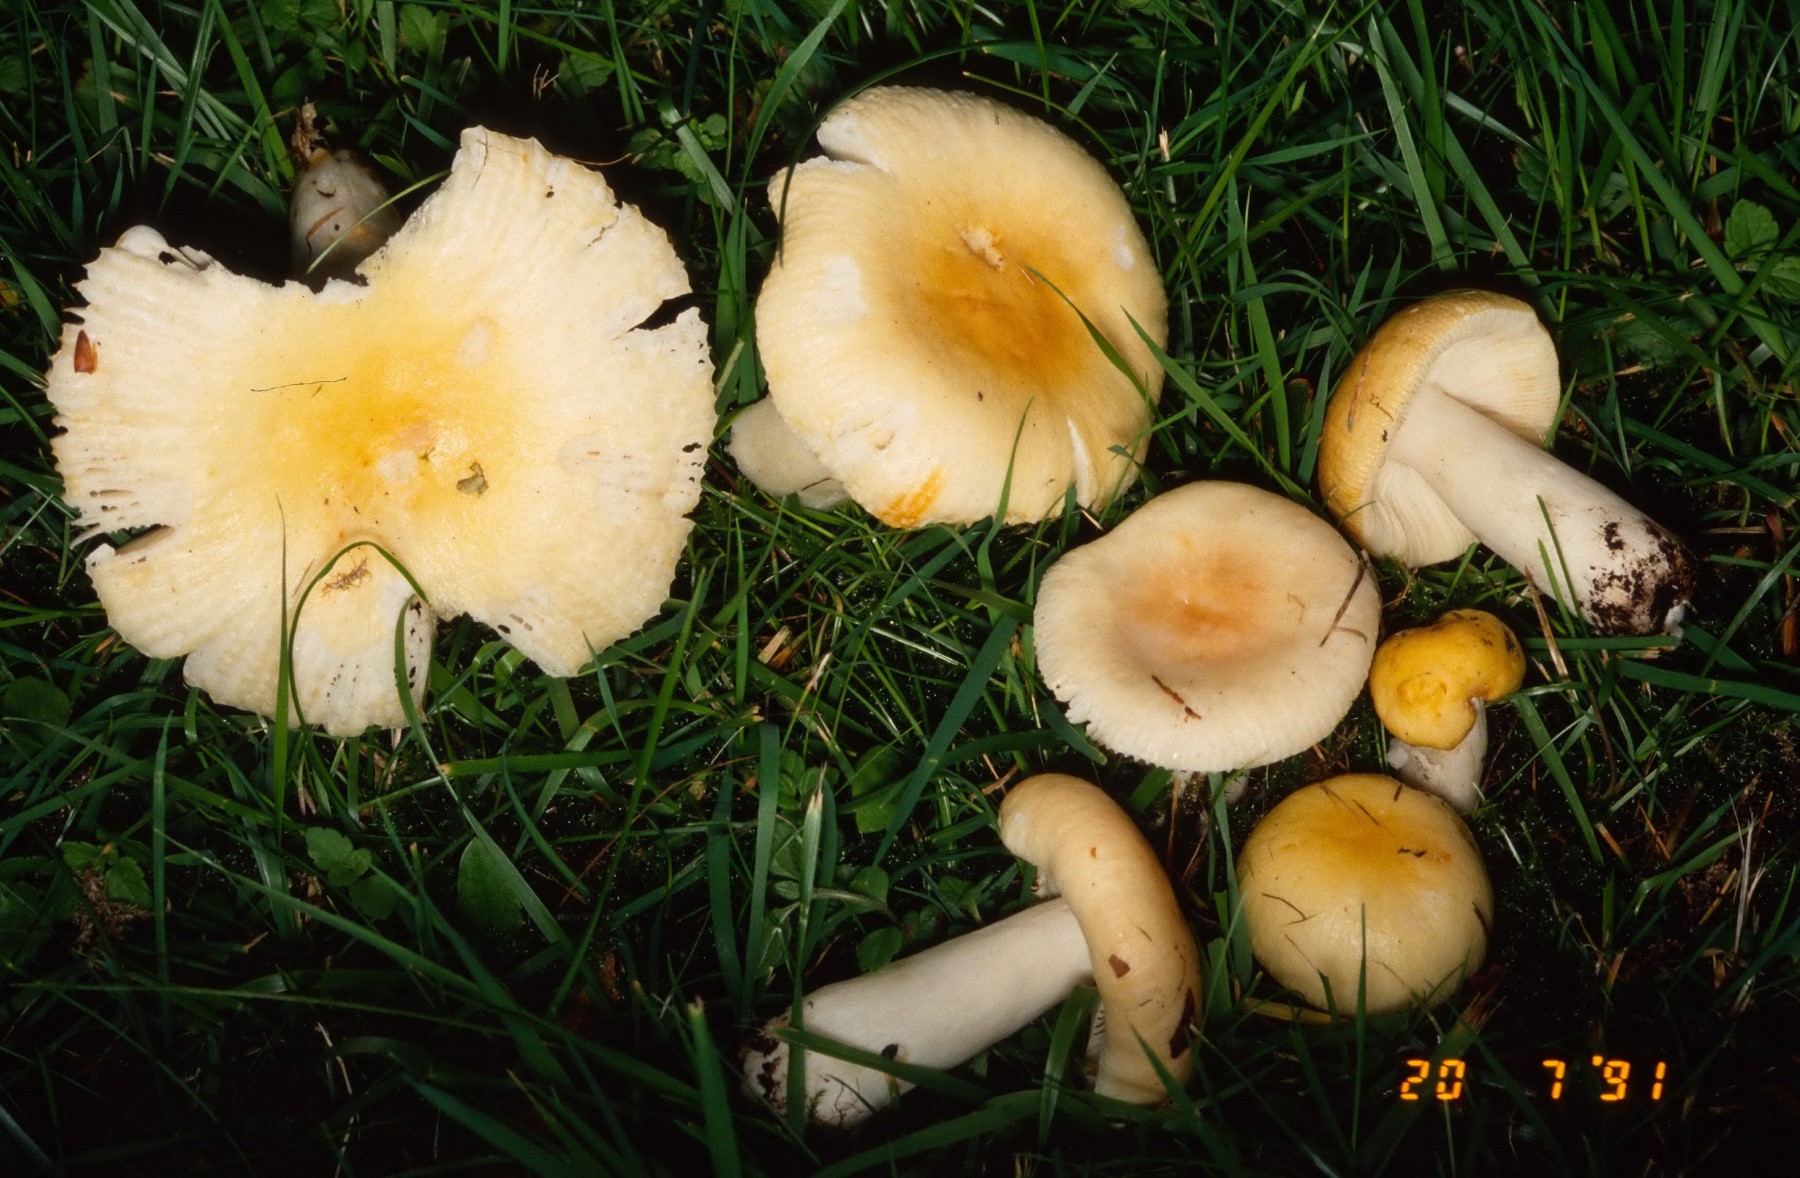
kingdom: Fungi
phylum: Basidiomycota
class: Agaricomycetes
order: Russulales
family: Russulaceae
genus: Russula
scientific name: Russula solaris
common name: sol-skørhat
